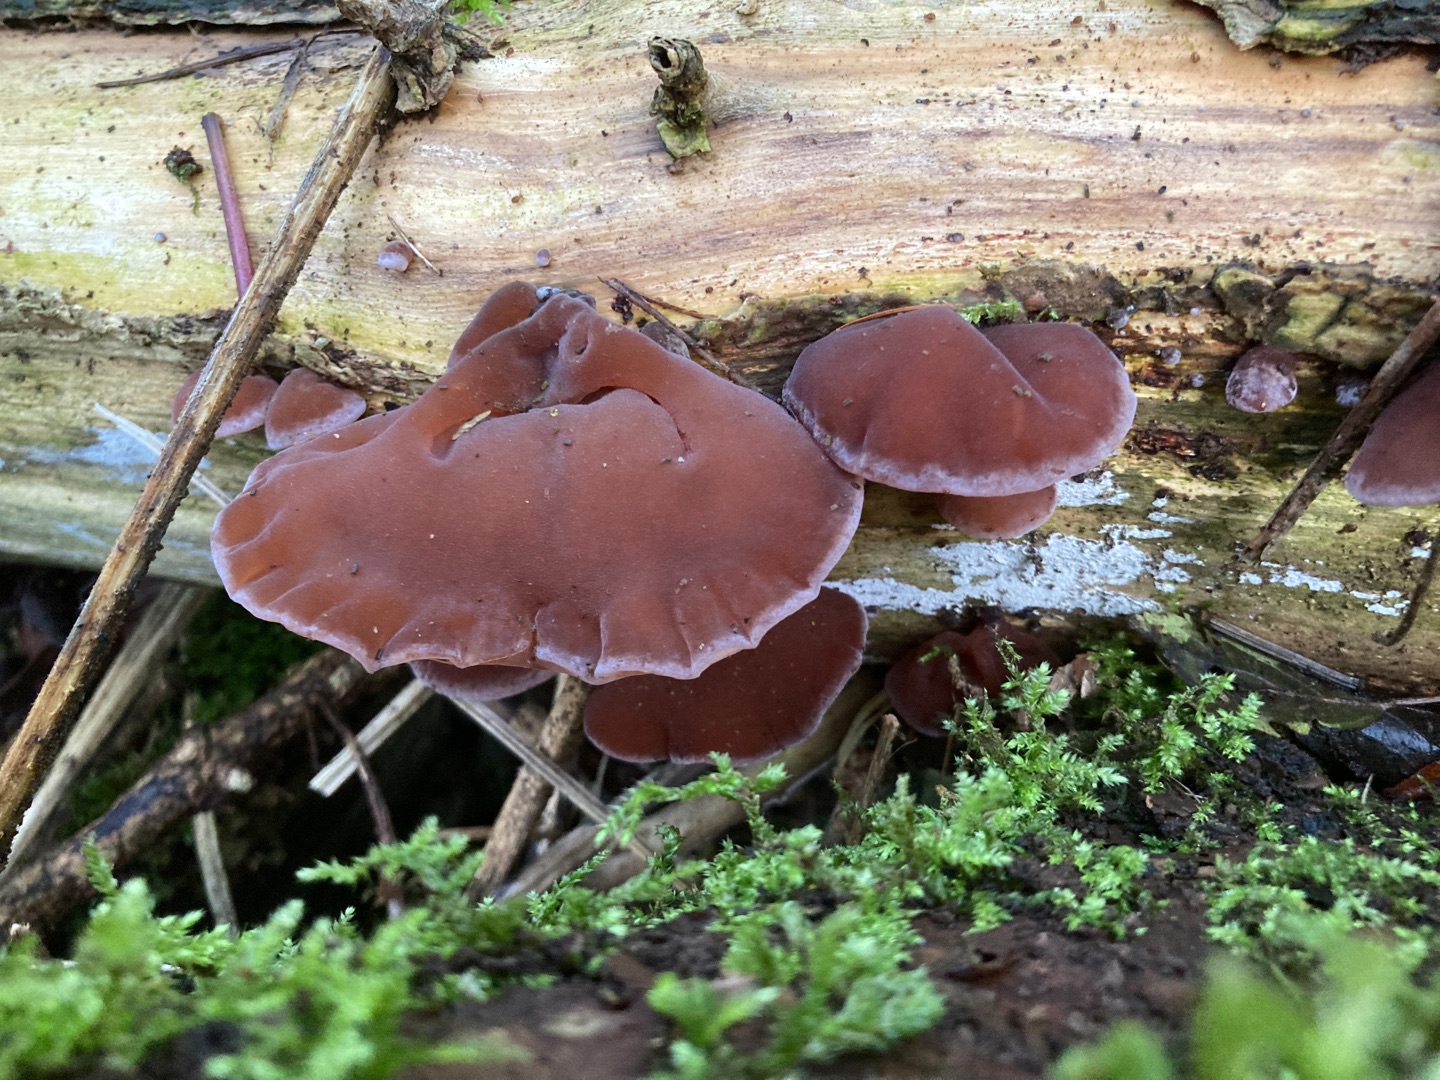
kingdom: Fungi
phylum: Basidiomycota
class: Agaricomycetes
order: Auriculariales
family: Auriculariaceae
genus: Auricularia
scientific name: Auricularia auricula-judae
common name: Almindelig judasøre
